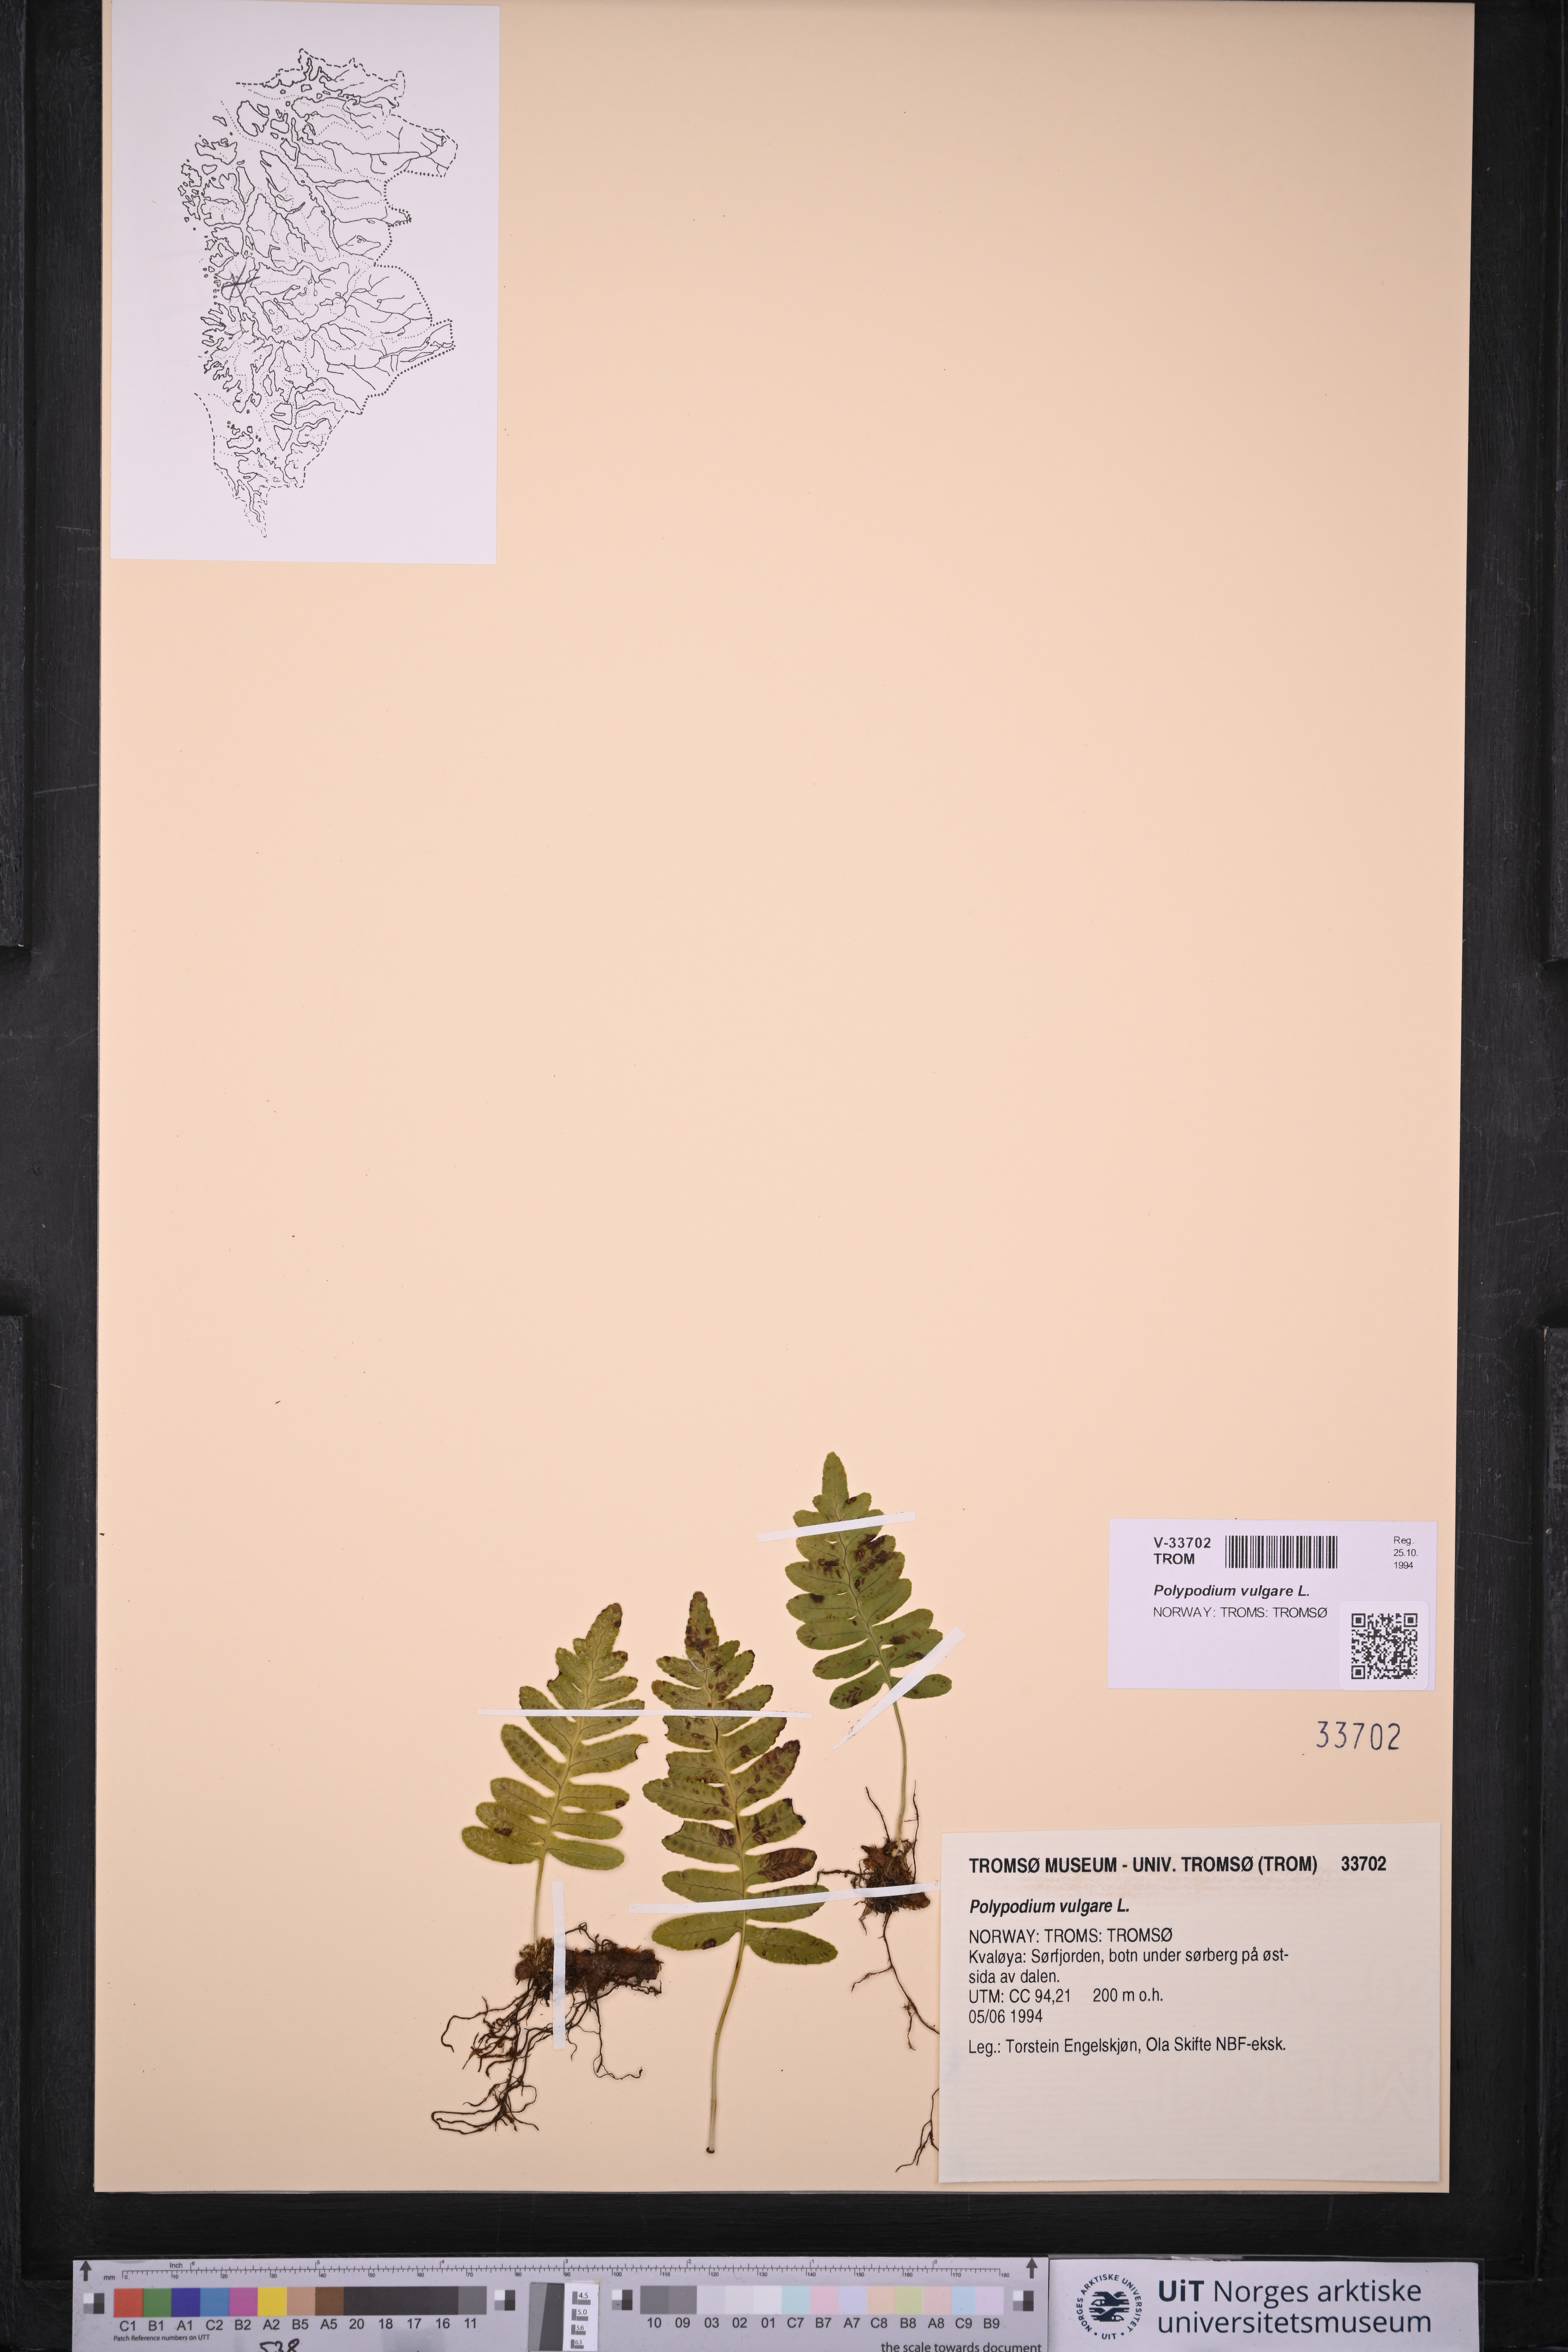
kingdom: Plantae
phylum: Tracheophyta
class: Polypodiopsida
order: Polypodiales
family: Polypodiaceae
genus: Polypodium
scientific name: Polypodium vulgare
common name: Common polypody
